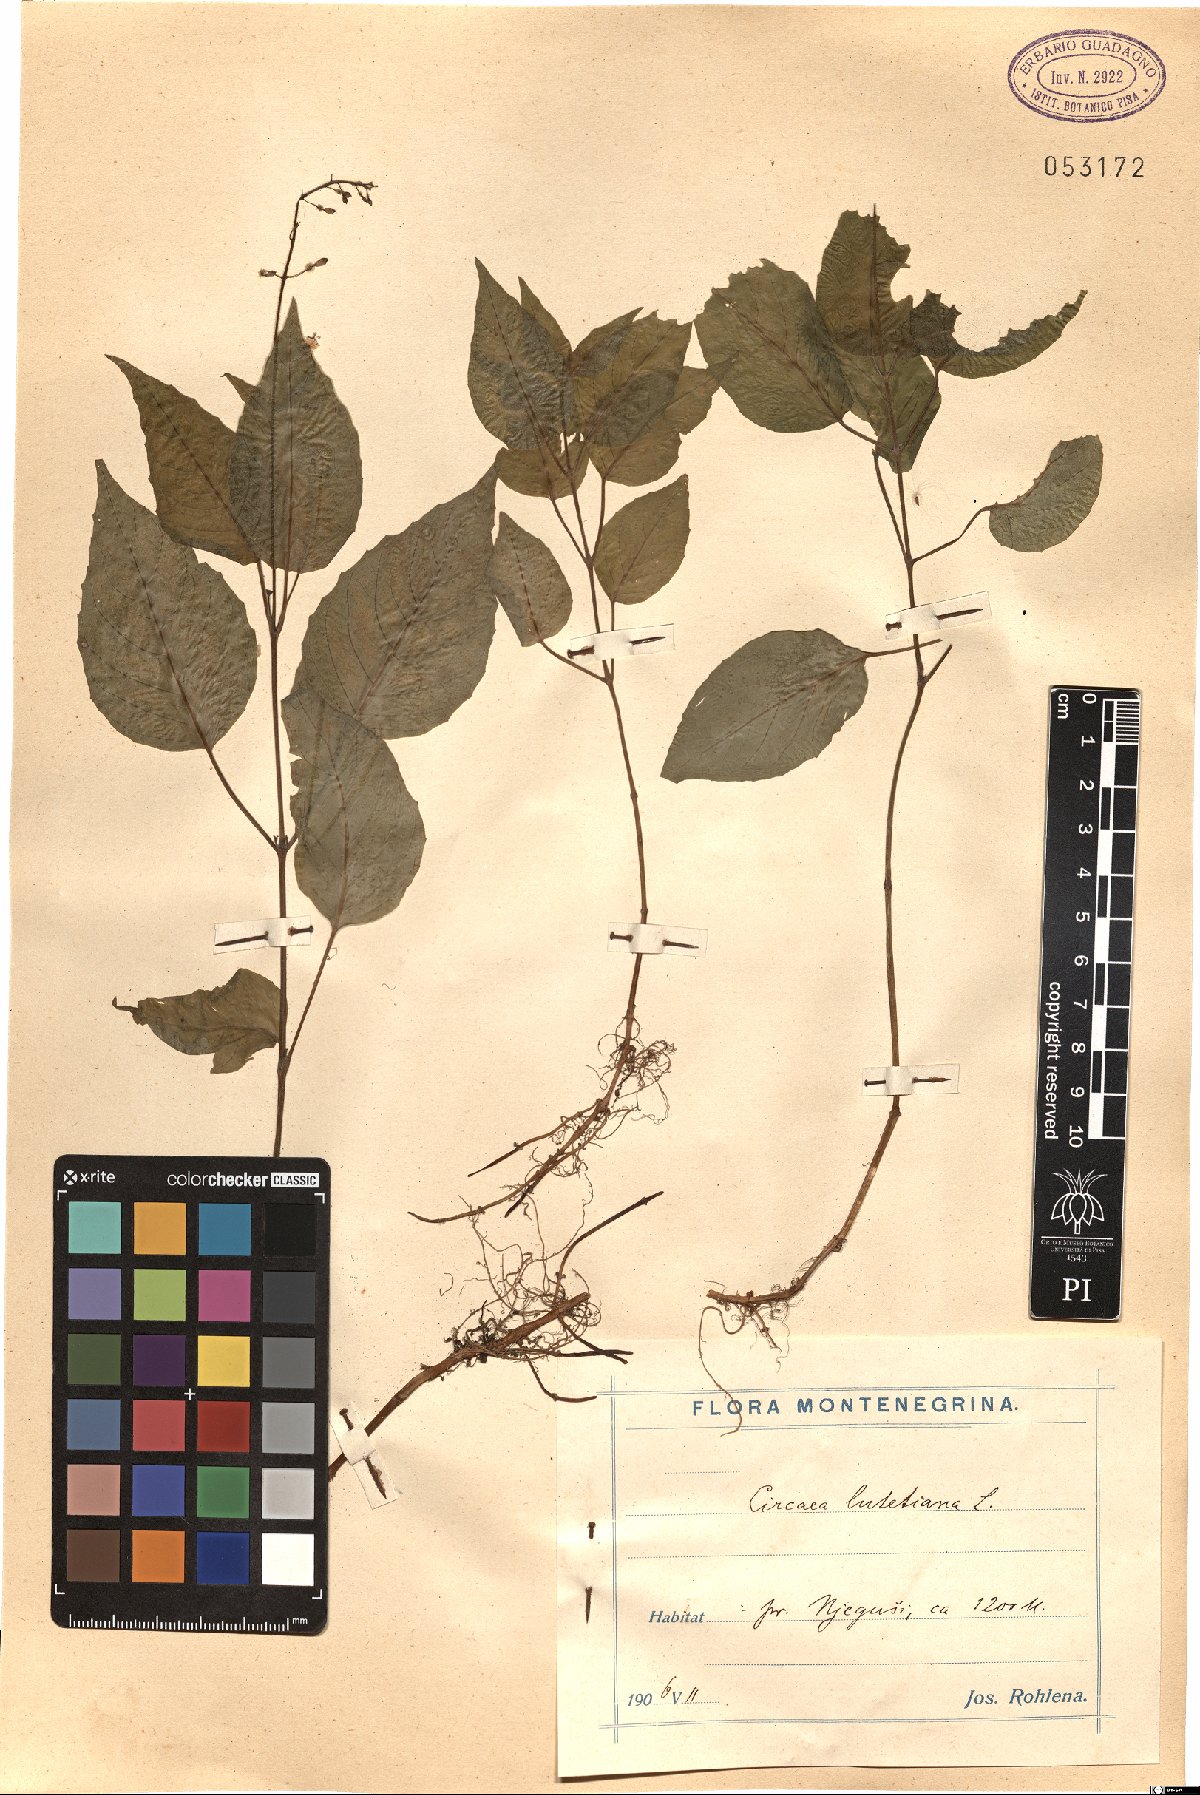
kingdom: Plantae
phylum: Tracheophyta
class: Magnoliopsida
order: Myrtales
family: Onagraceae
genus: Circaea
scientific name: Circaea lutetiana
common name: Enchanter's-nightshade
